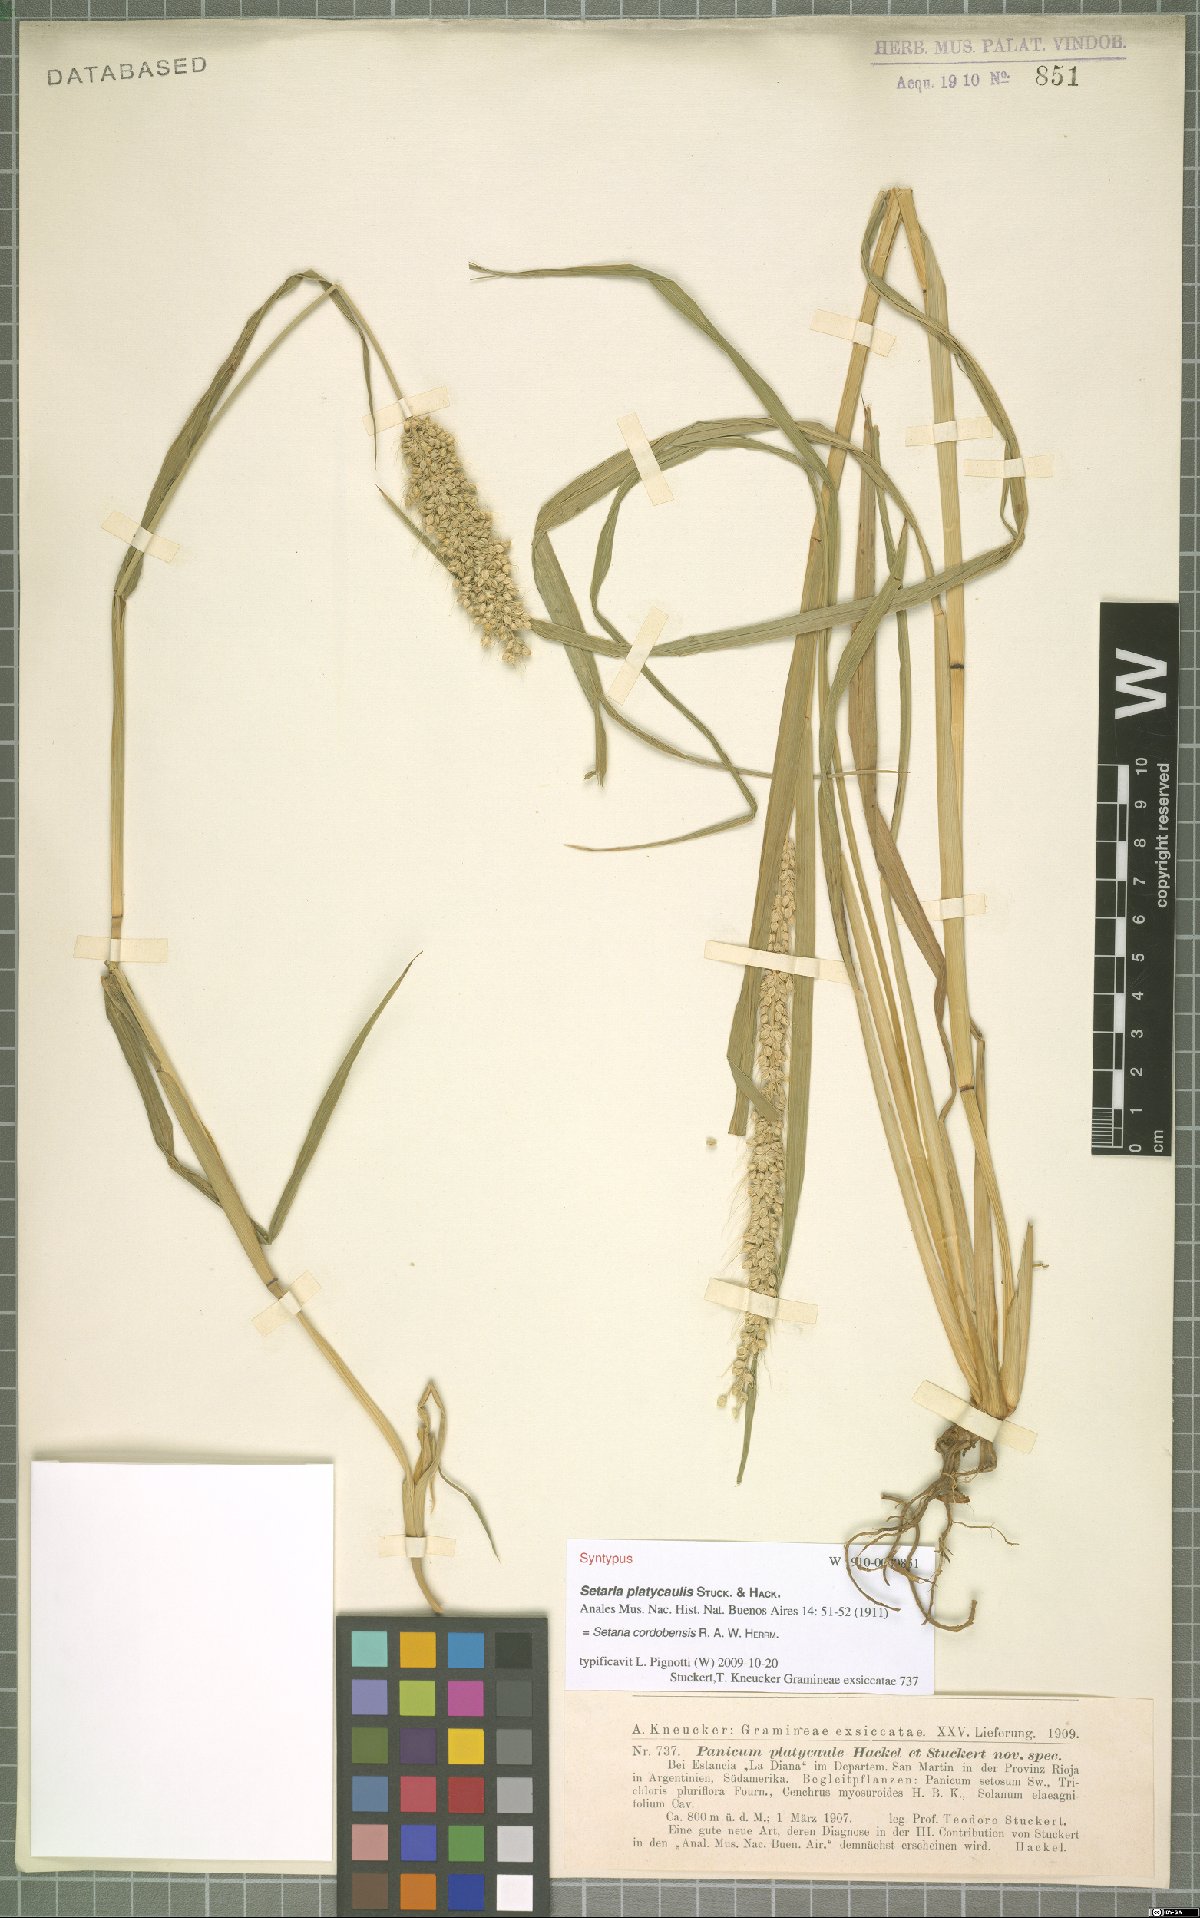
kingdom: Plantae
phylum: Tracheophyta
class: Liliopsida
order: Poales
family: Poaceae
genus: Setaria
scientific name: Setaria cordobensis
